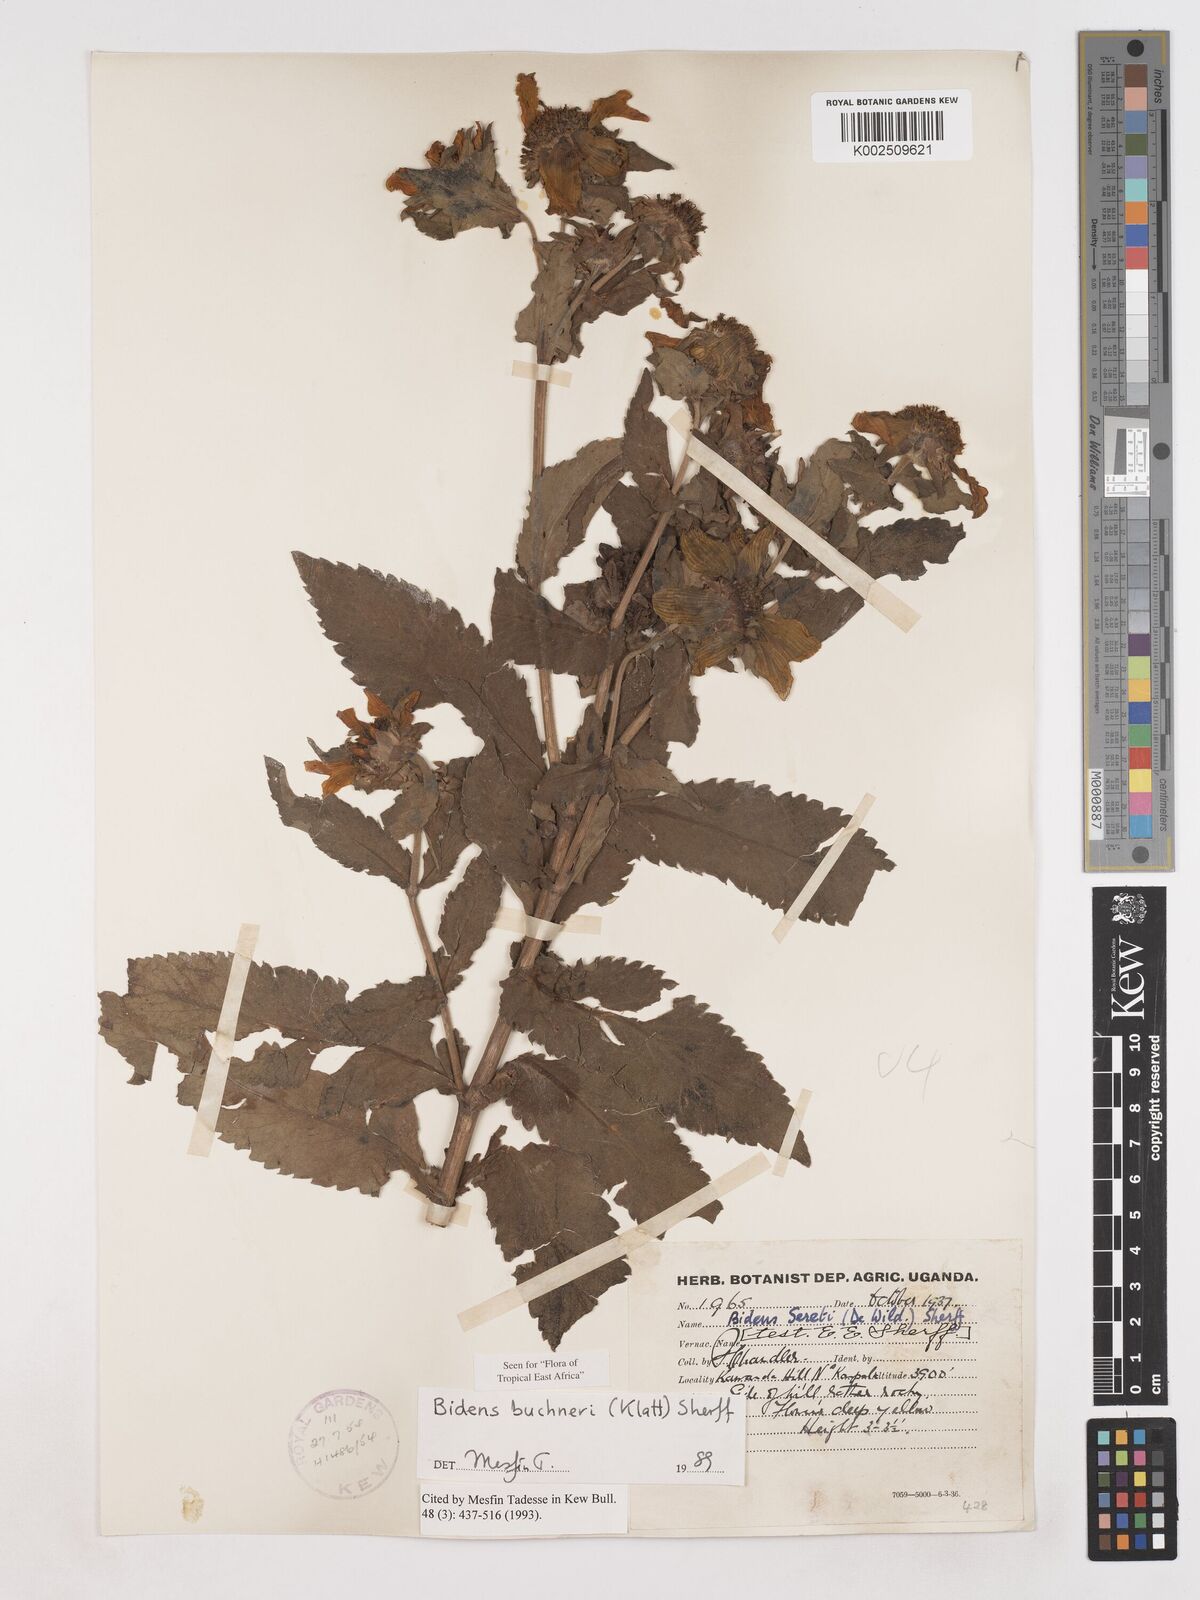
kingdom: Plantae
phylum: Tracheophyta
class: Magnoliopsida
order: Asterales
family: Asteraceae
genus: Bidens
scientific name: Bidens buchneri
